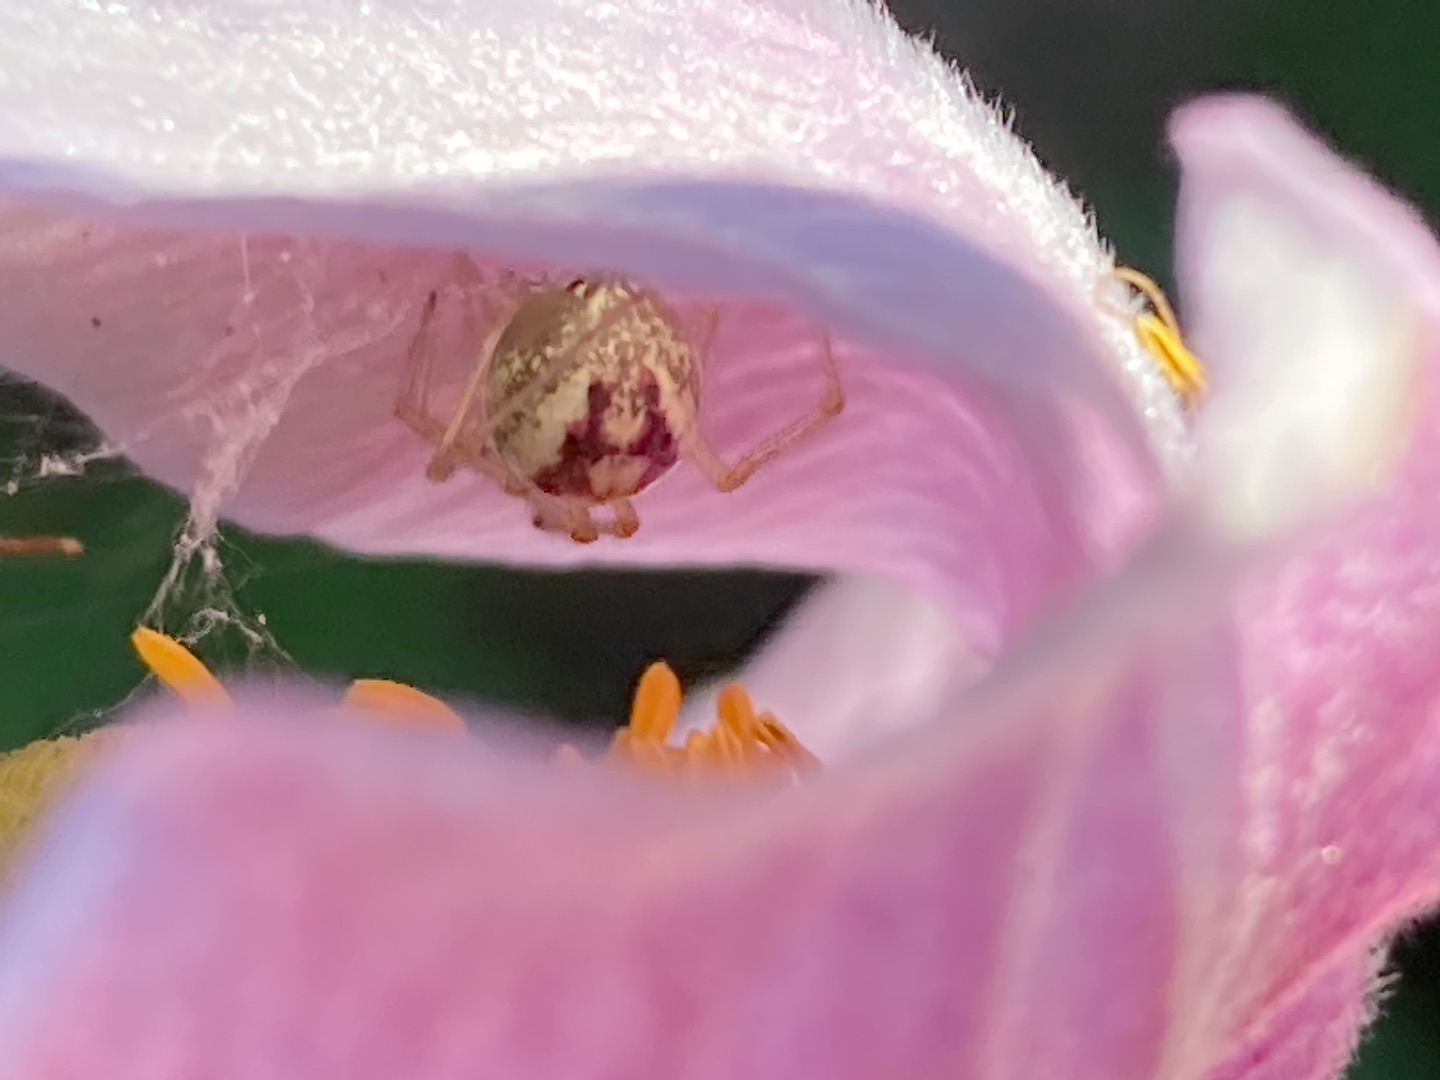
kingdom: Animalia
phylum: Arthropoda
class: Arachnida
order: Araneae
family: Theridiidae
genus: Enoplognatha
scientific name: Enoplognatha
